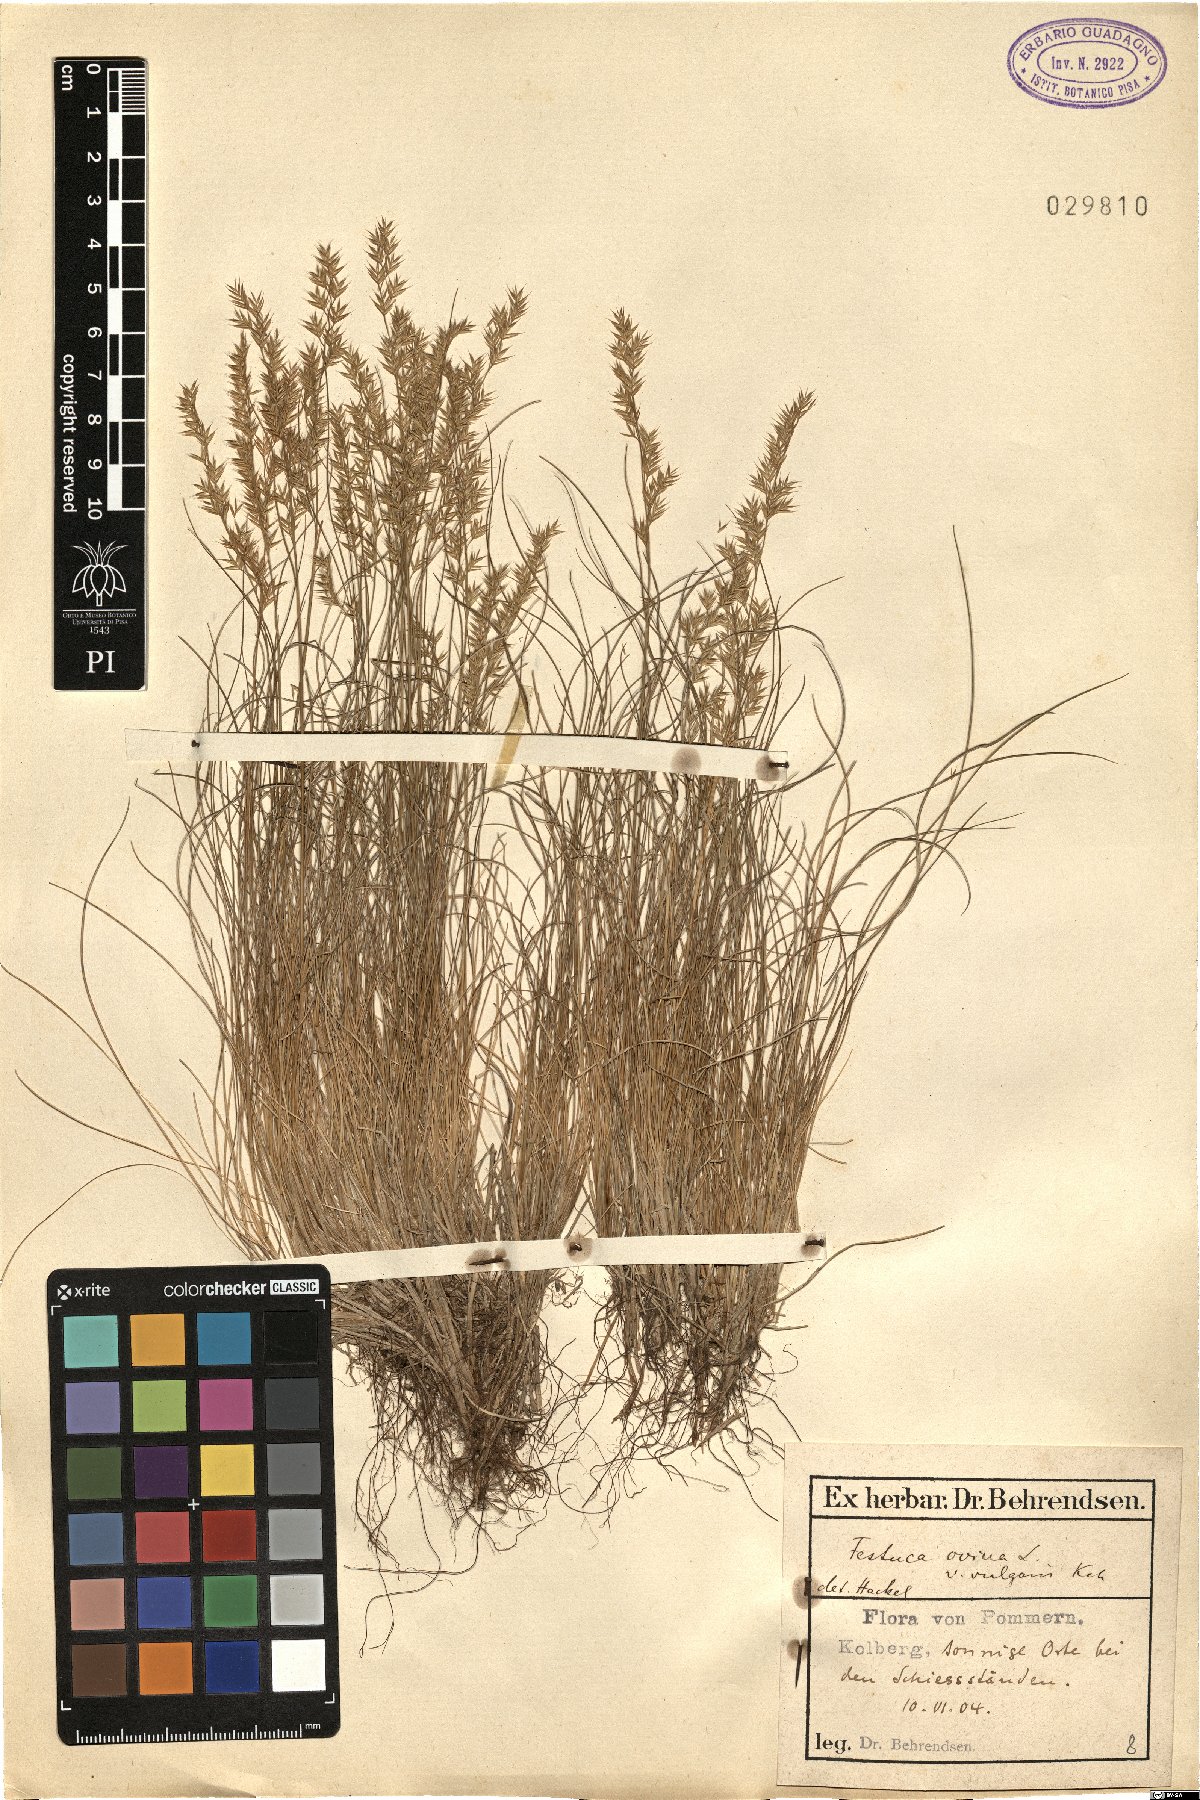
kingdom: Plantae
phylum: Tracheophyta
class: Liliopsida
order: Poales
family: Poaceae
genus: Festuca
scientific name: Festuca ovina
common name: Sheep fescue
